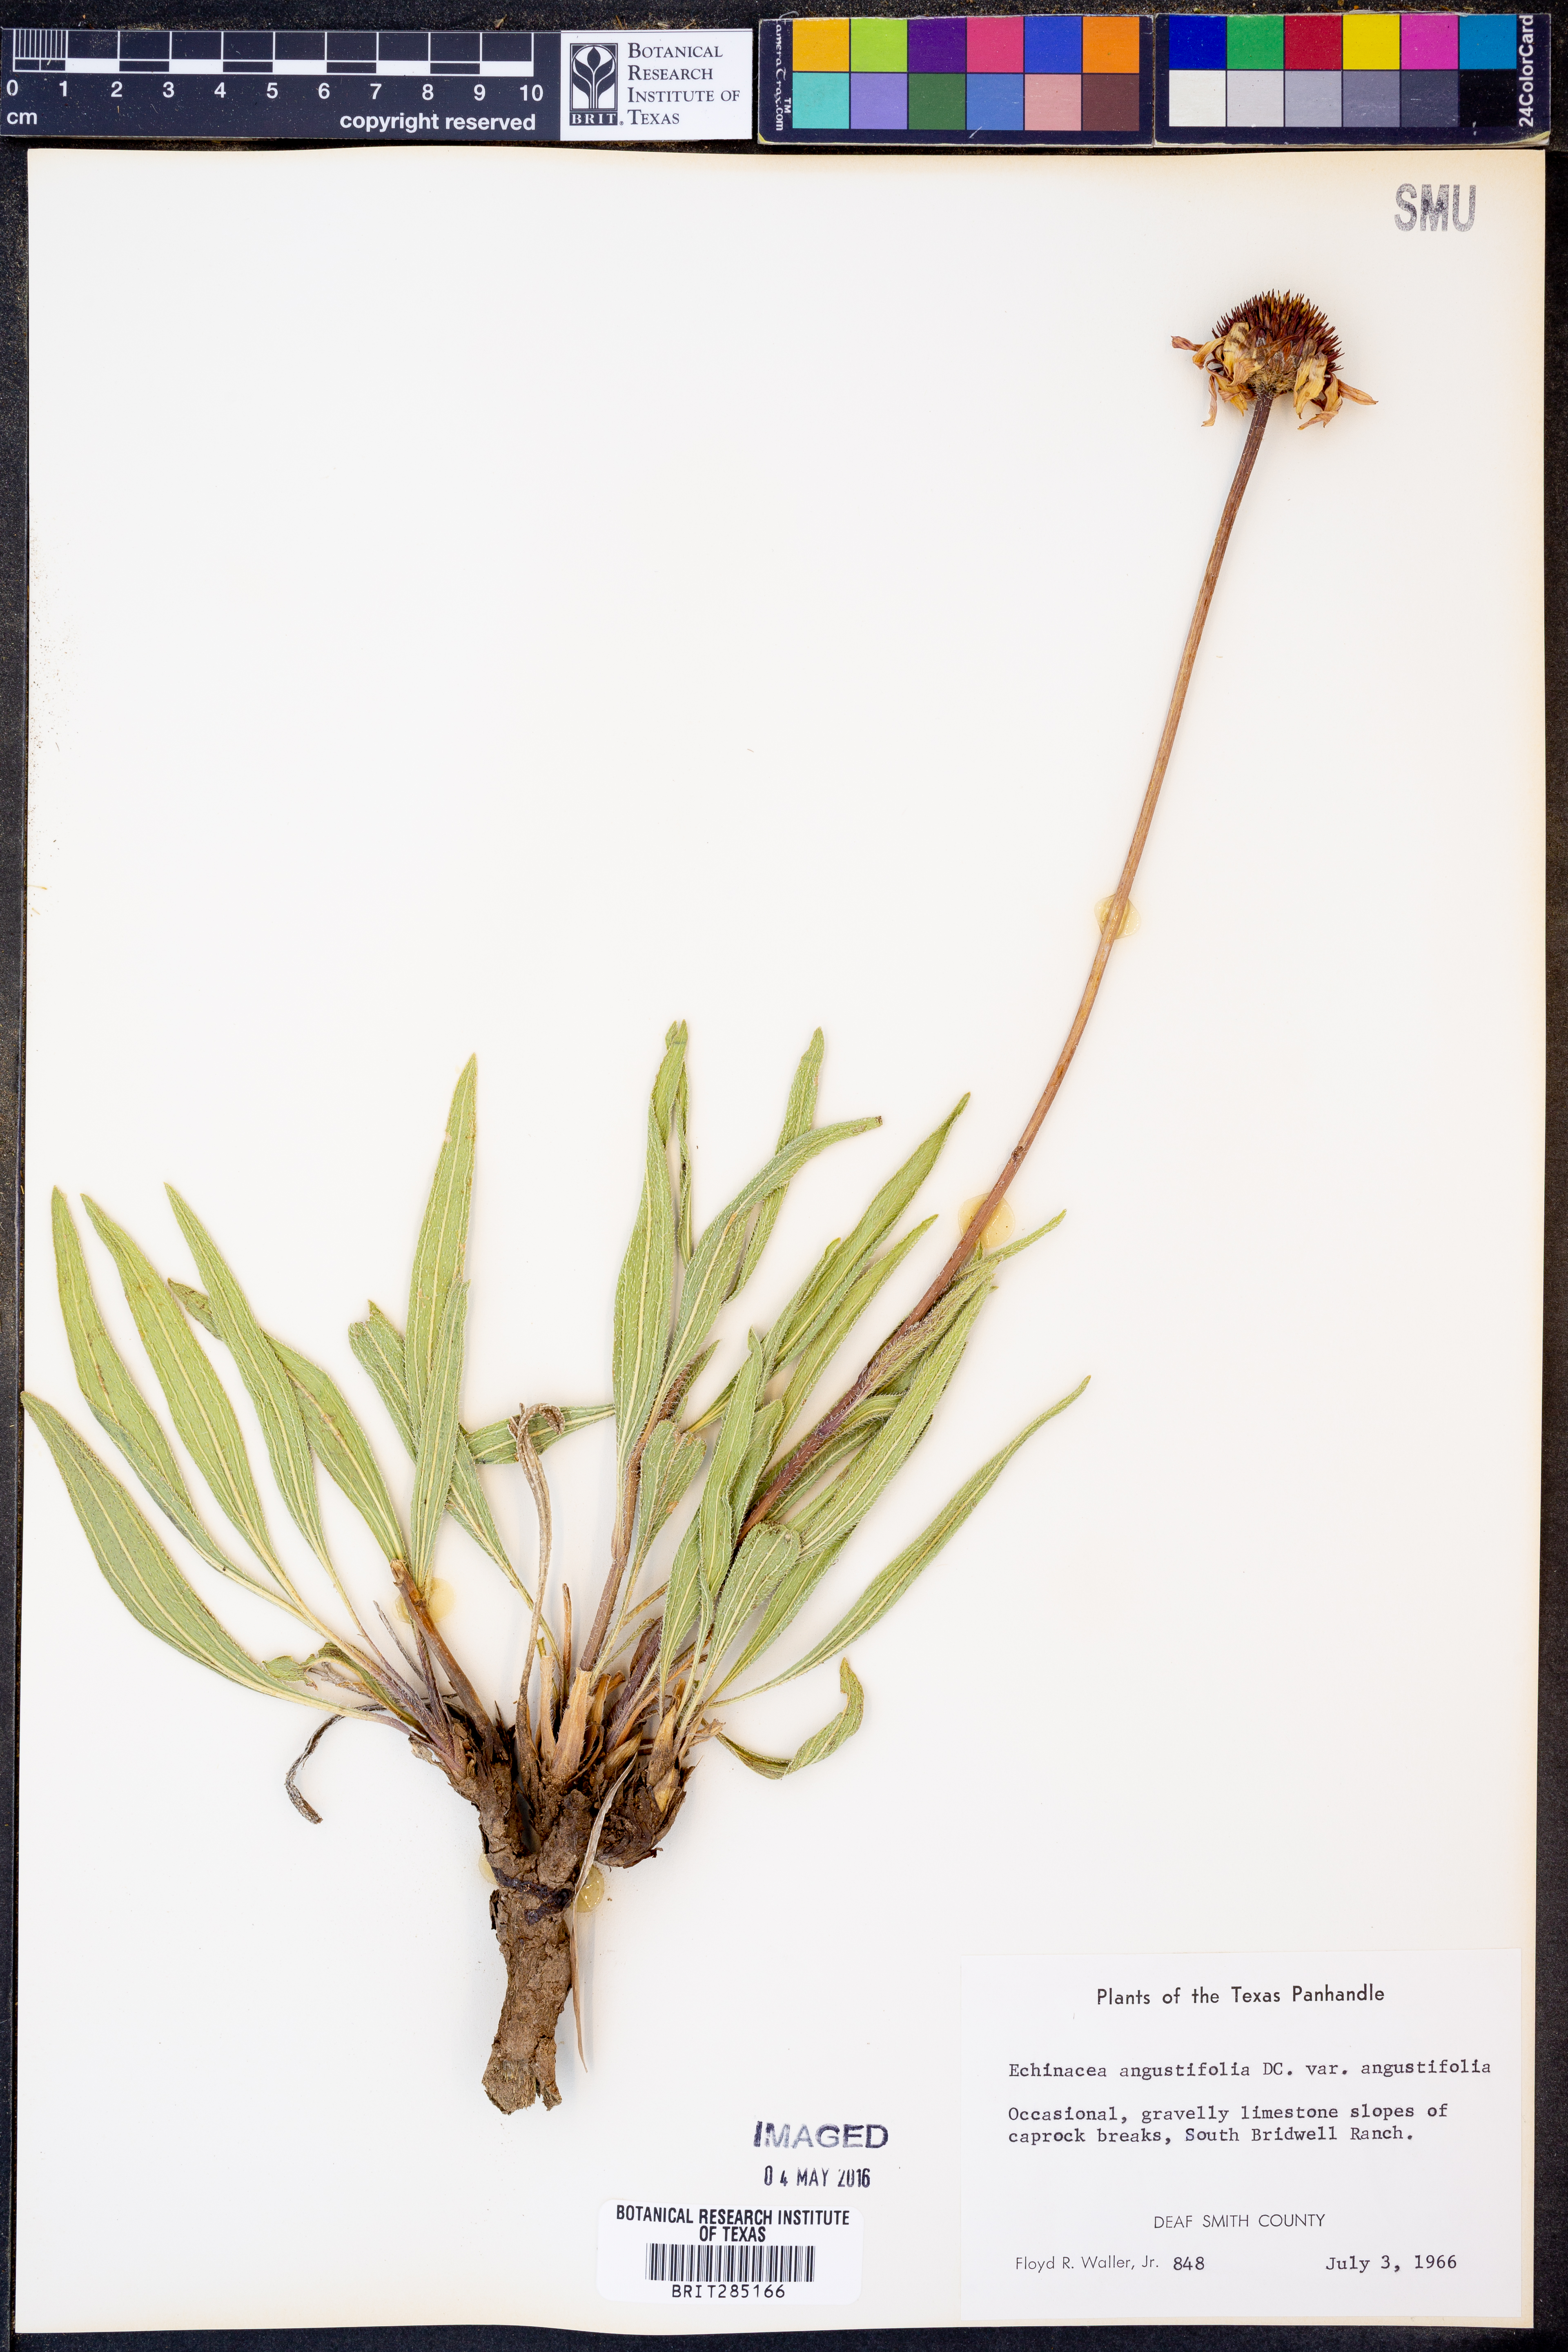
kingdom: Plantae
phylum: Tracheophyta
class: Magnoliopsida
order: Asterales
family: Asteraceae
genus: Echinacea
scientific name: Echinacea angustifolia
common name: Black-sampson echinacea
